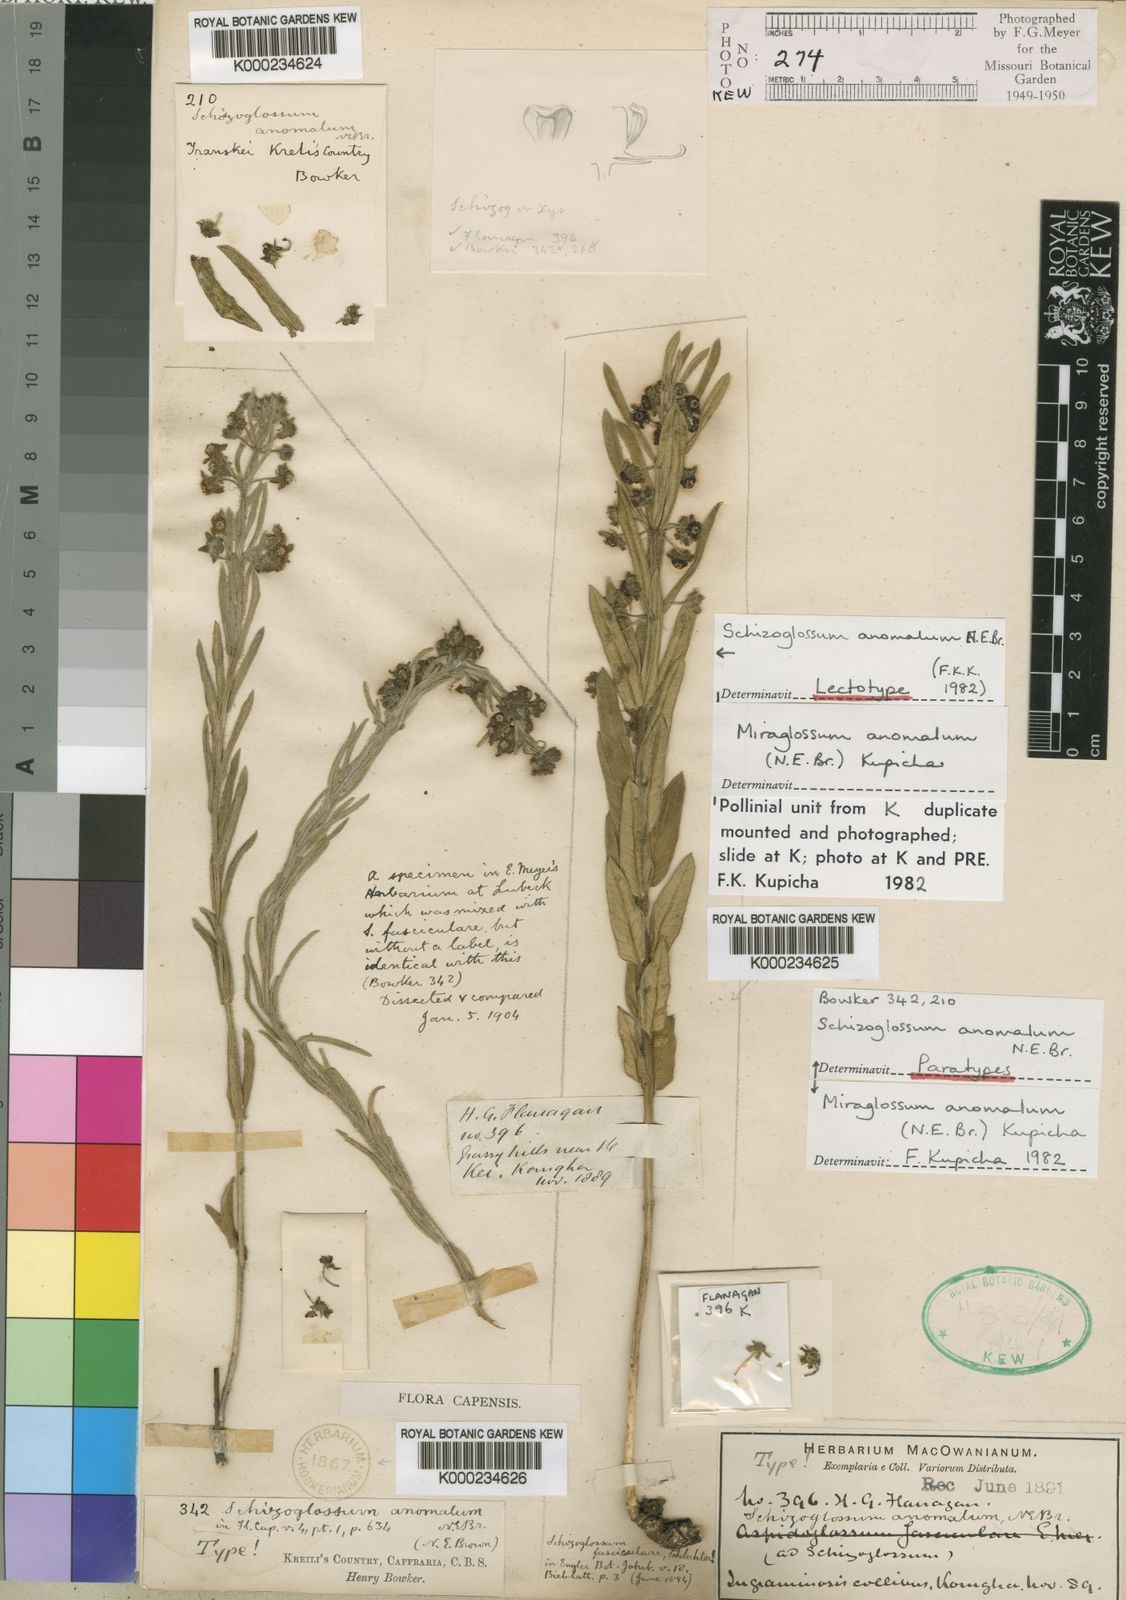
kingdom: Plantae
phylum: Tracheophyta
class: Magnoliopsida
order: Gentianales
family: Apocynaceae
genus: Miraglossum
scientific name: Miraglossum anomalum
